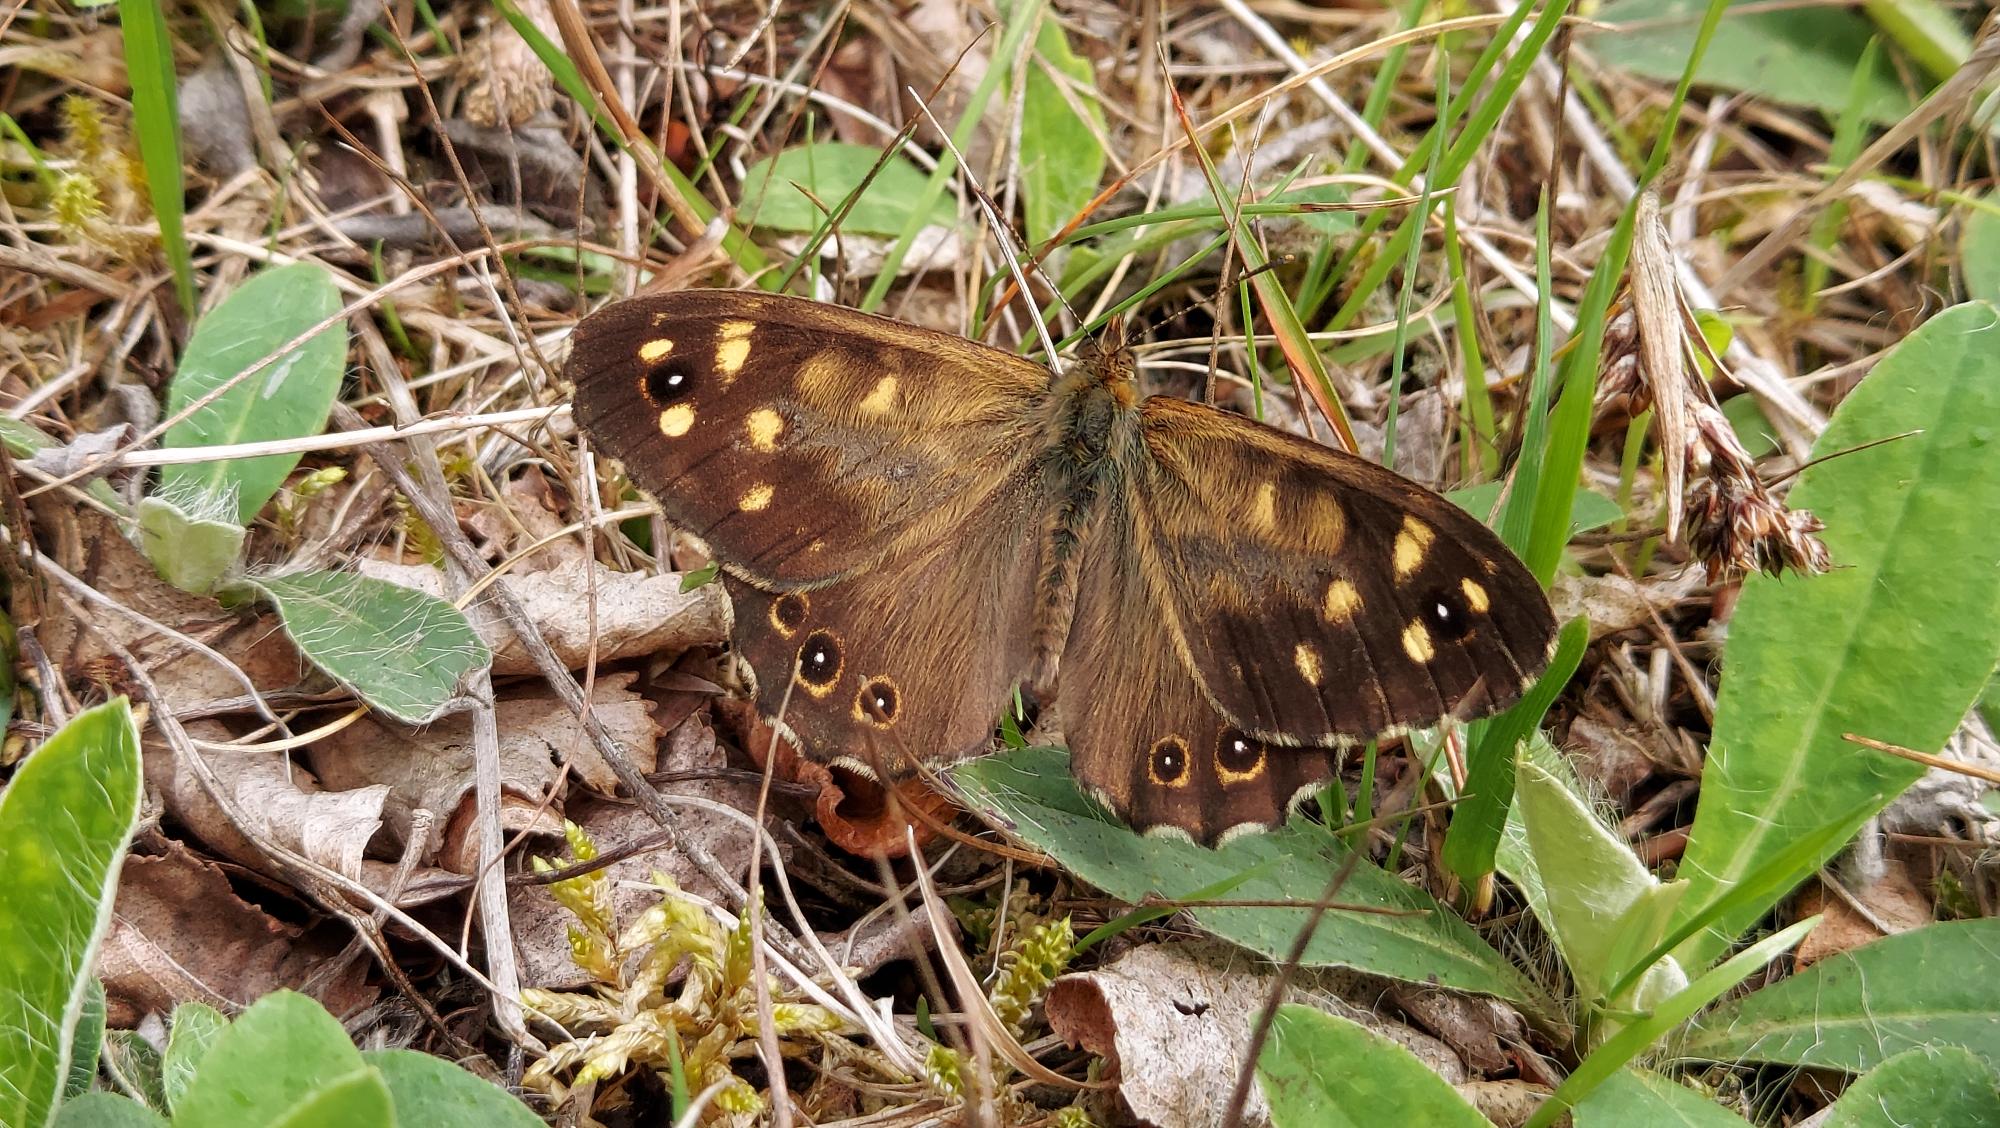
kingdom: Animalia
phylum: Arthropoda
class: Insecta
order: Lepidoptera
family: Nymphalidae
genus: Pararge
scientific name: Pararge aegeria
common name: Skovrandøje
